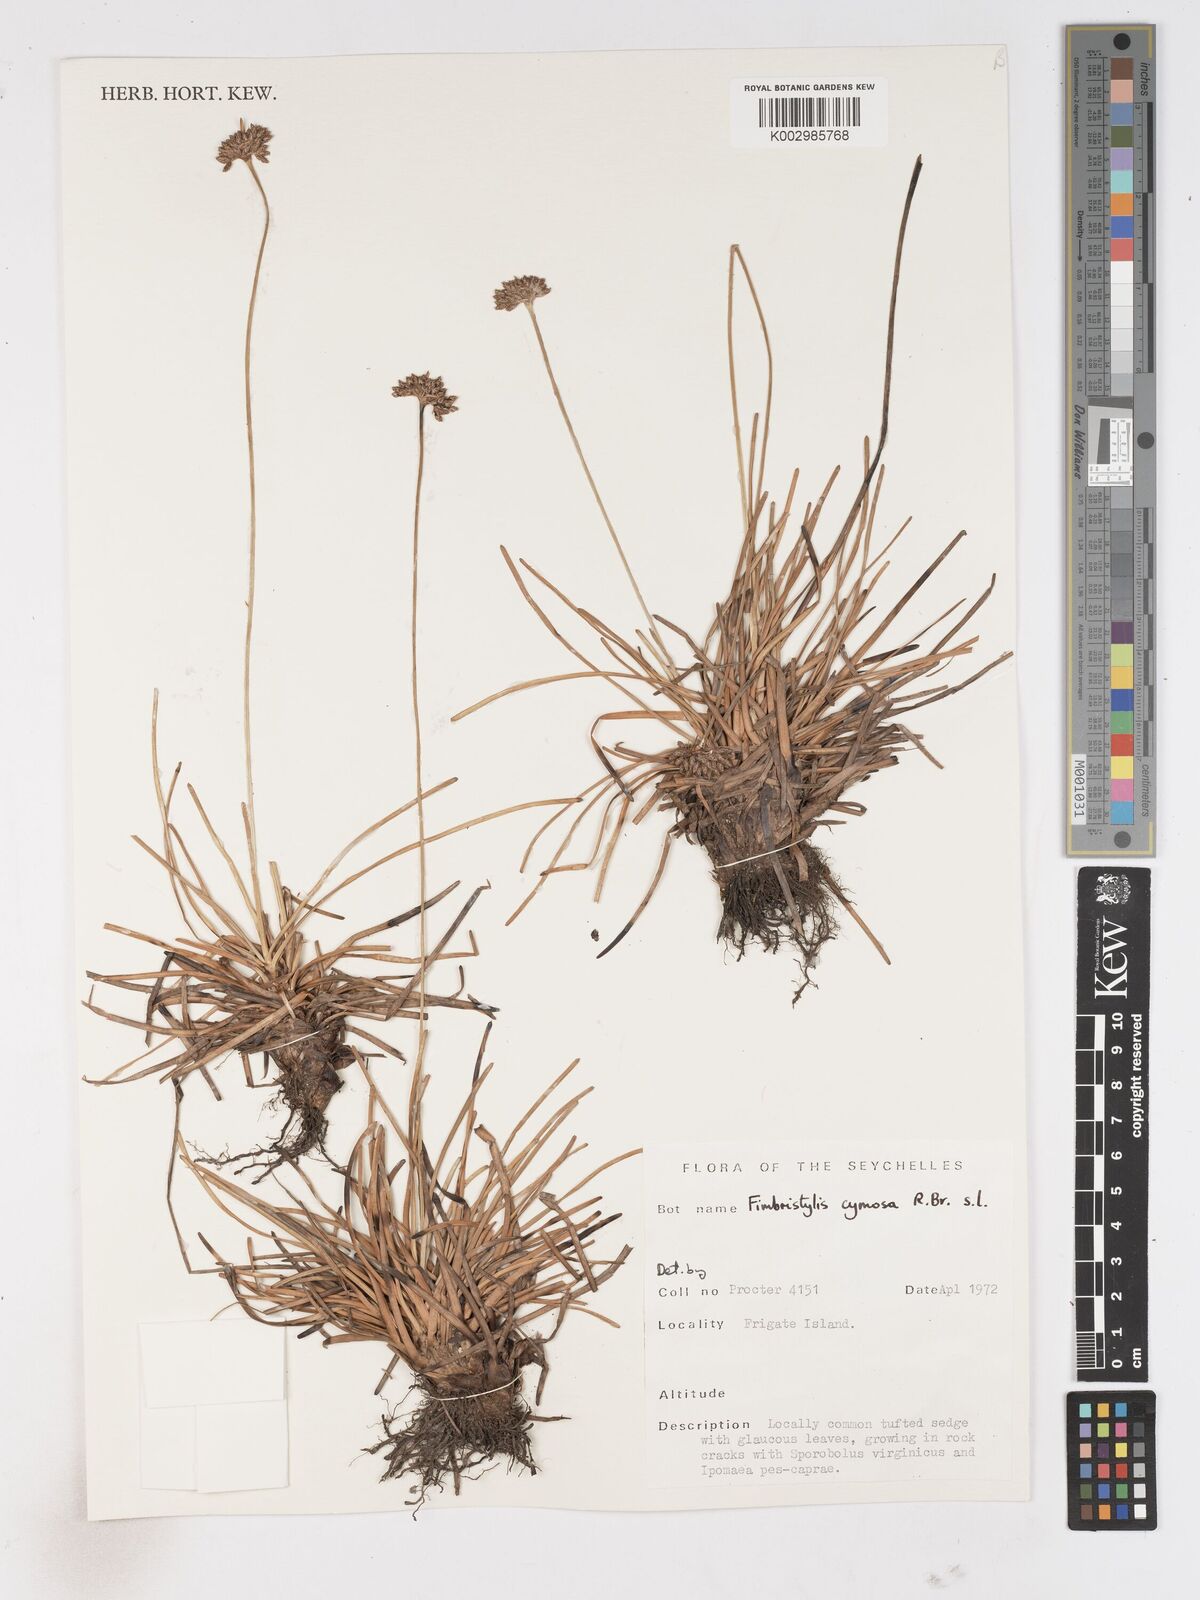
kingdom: Plantae
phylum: Tracheophyta
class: Liliopsida
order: Poales
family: Cyperaceae
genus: Fimbristylis
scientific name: Fimbristylis cymosa
